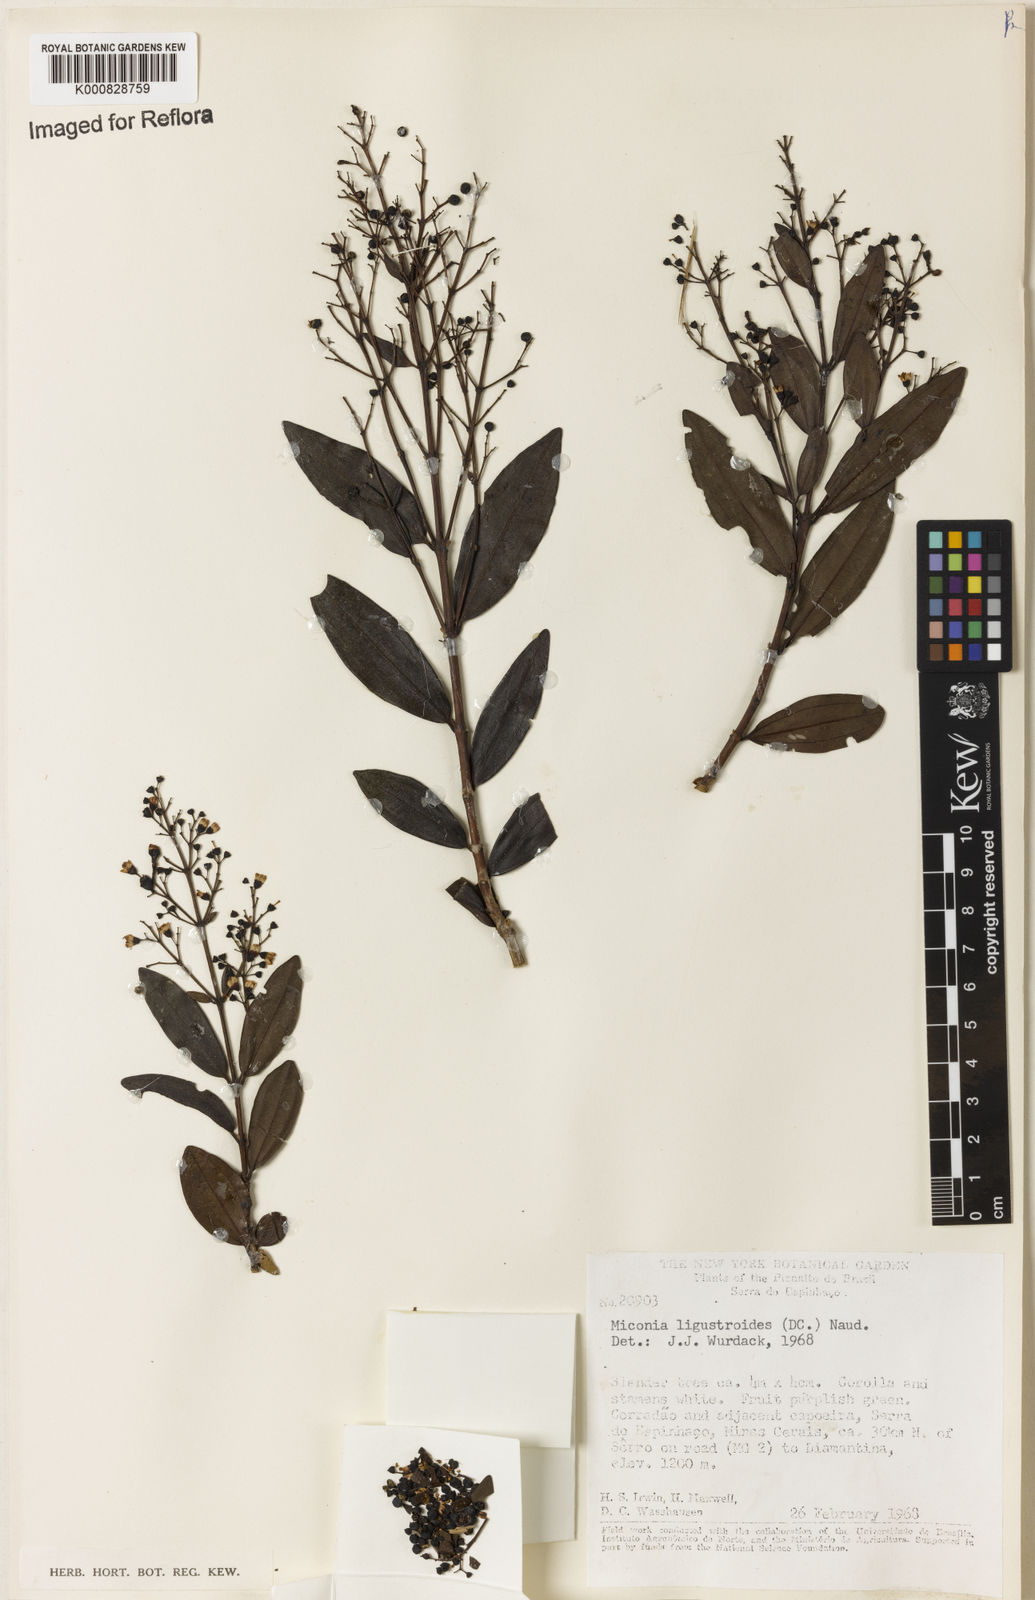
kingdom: Plantae
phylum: Tracheophyta
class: Magnoliopsida
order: Myrtales
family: Melastomataceae
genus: Miconia
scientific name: Miconia ligustroides
